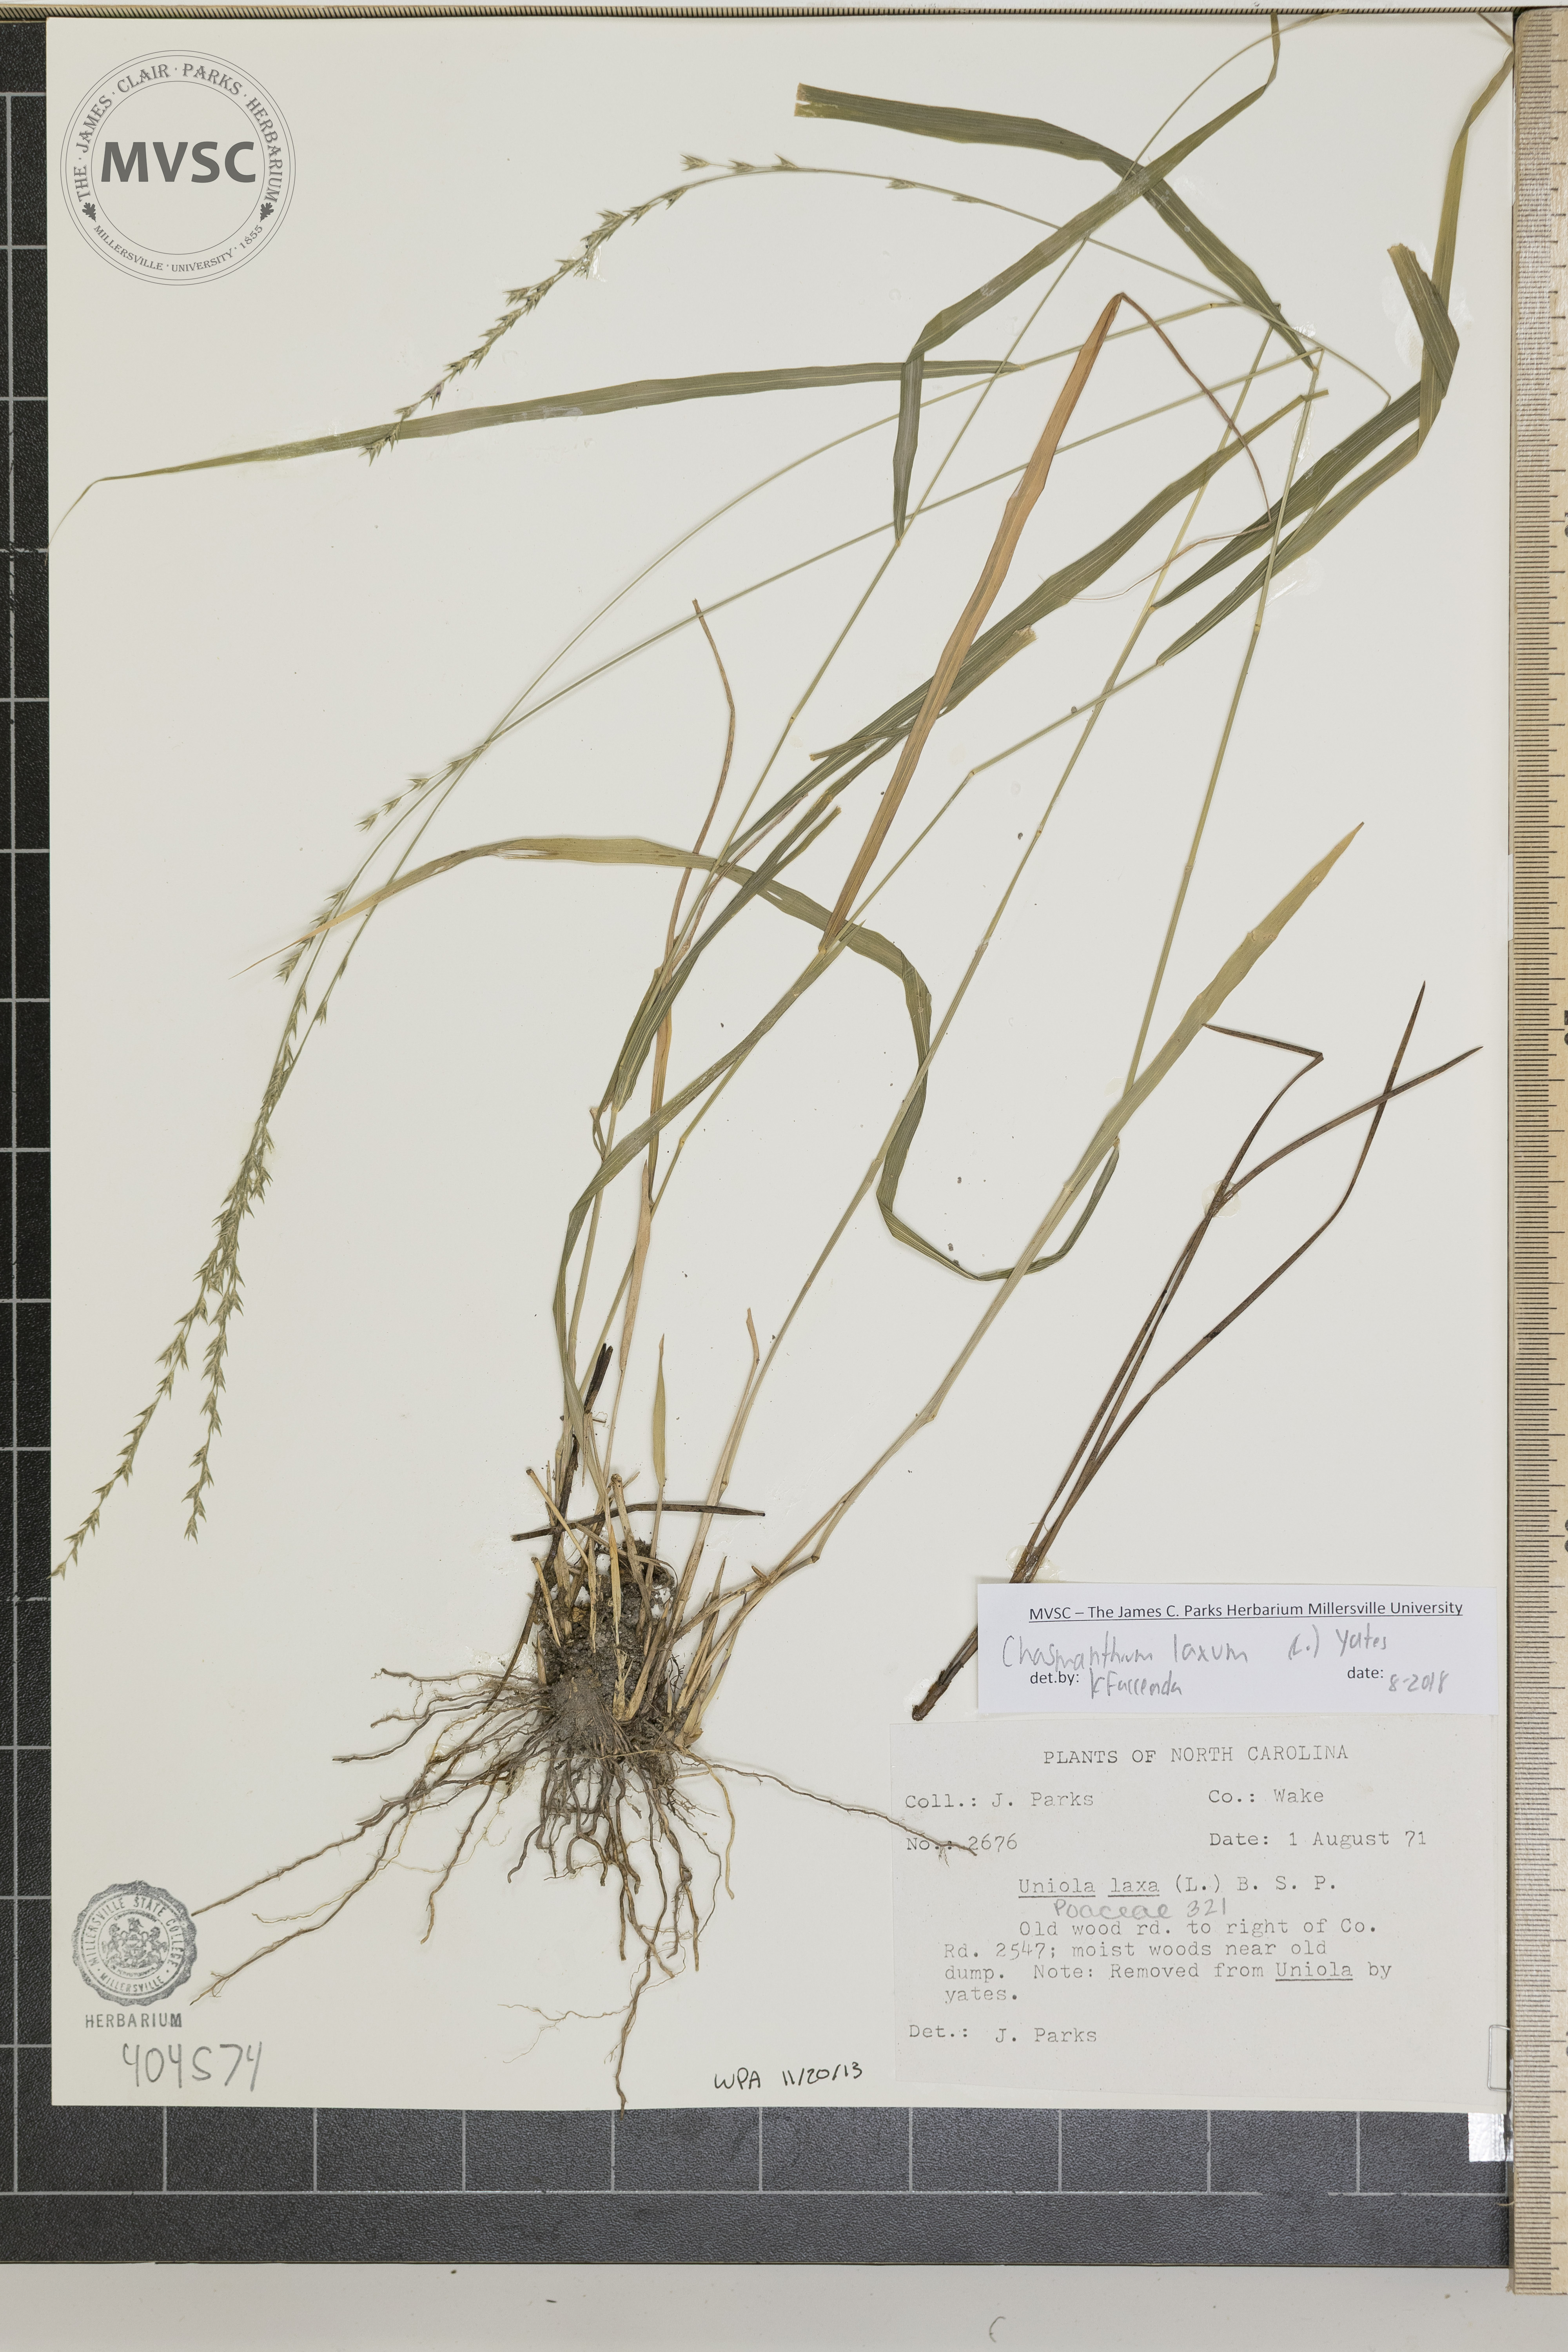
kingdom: Plantae
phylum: Tracheophyta
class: Liliopsida
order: Poales
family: Poaceae
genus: Chasmanthium
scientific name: Chasmanthium laxum
